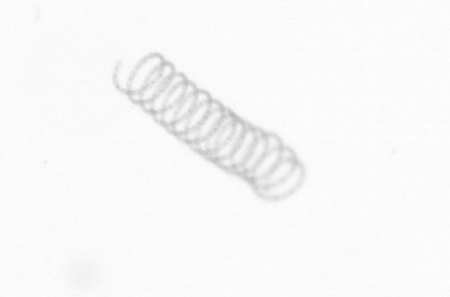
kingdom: Chromista
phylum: Ochrophyta
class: Bacillariophyceae
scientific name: Bacillariophyceae
